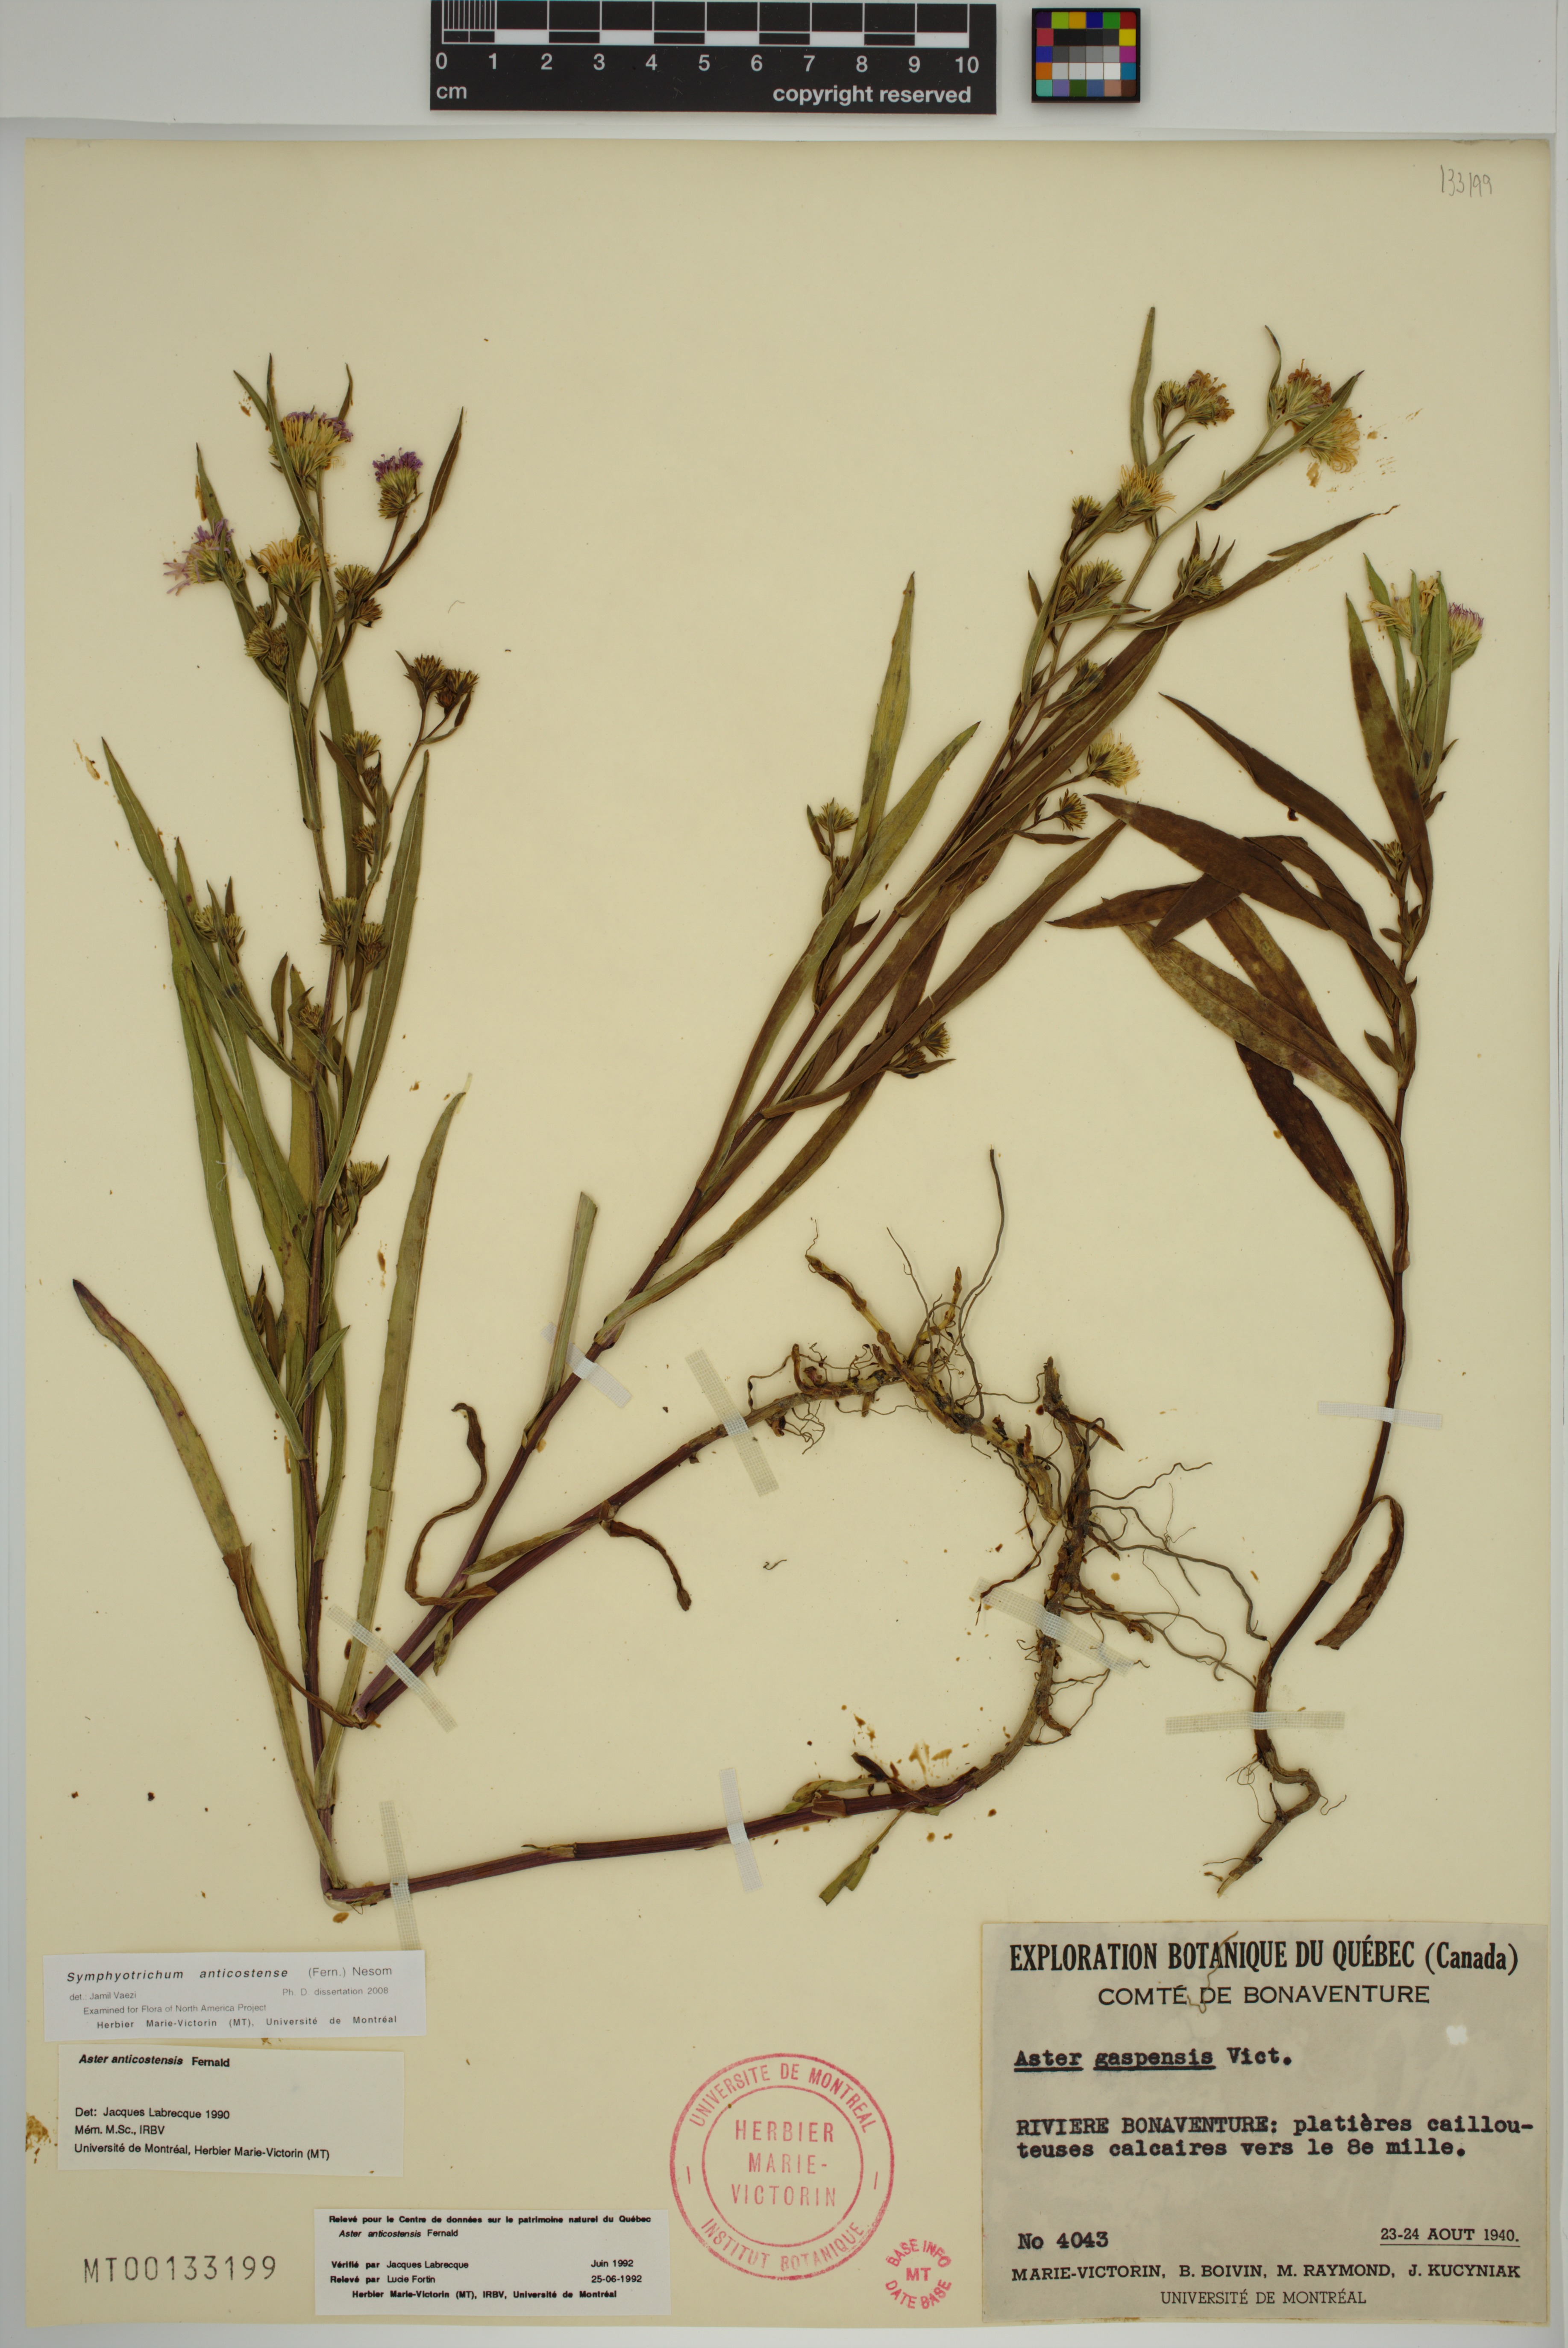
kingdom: Plantae
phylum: Tracheophyta
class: Magnoliopsida
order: Asterales
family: Asteraceae
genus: Symphyotrichum
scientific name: Symphyotrichum anticostense
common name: Anticosti island aster
